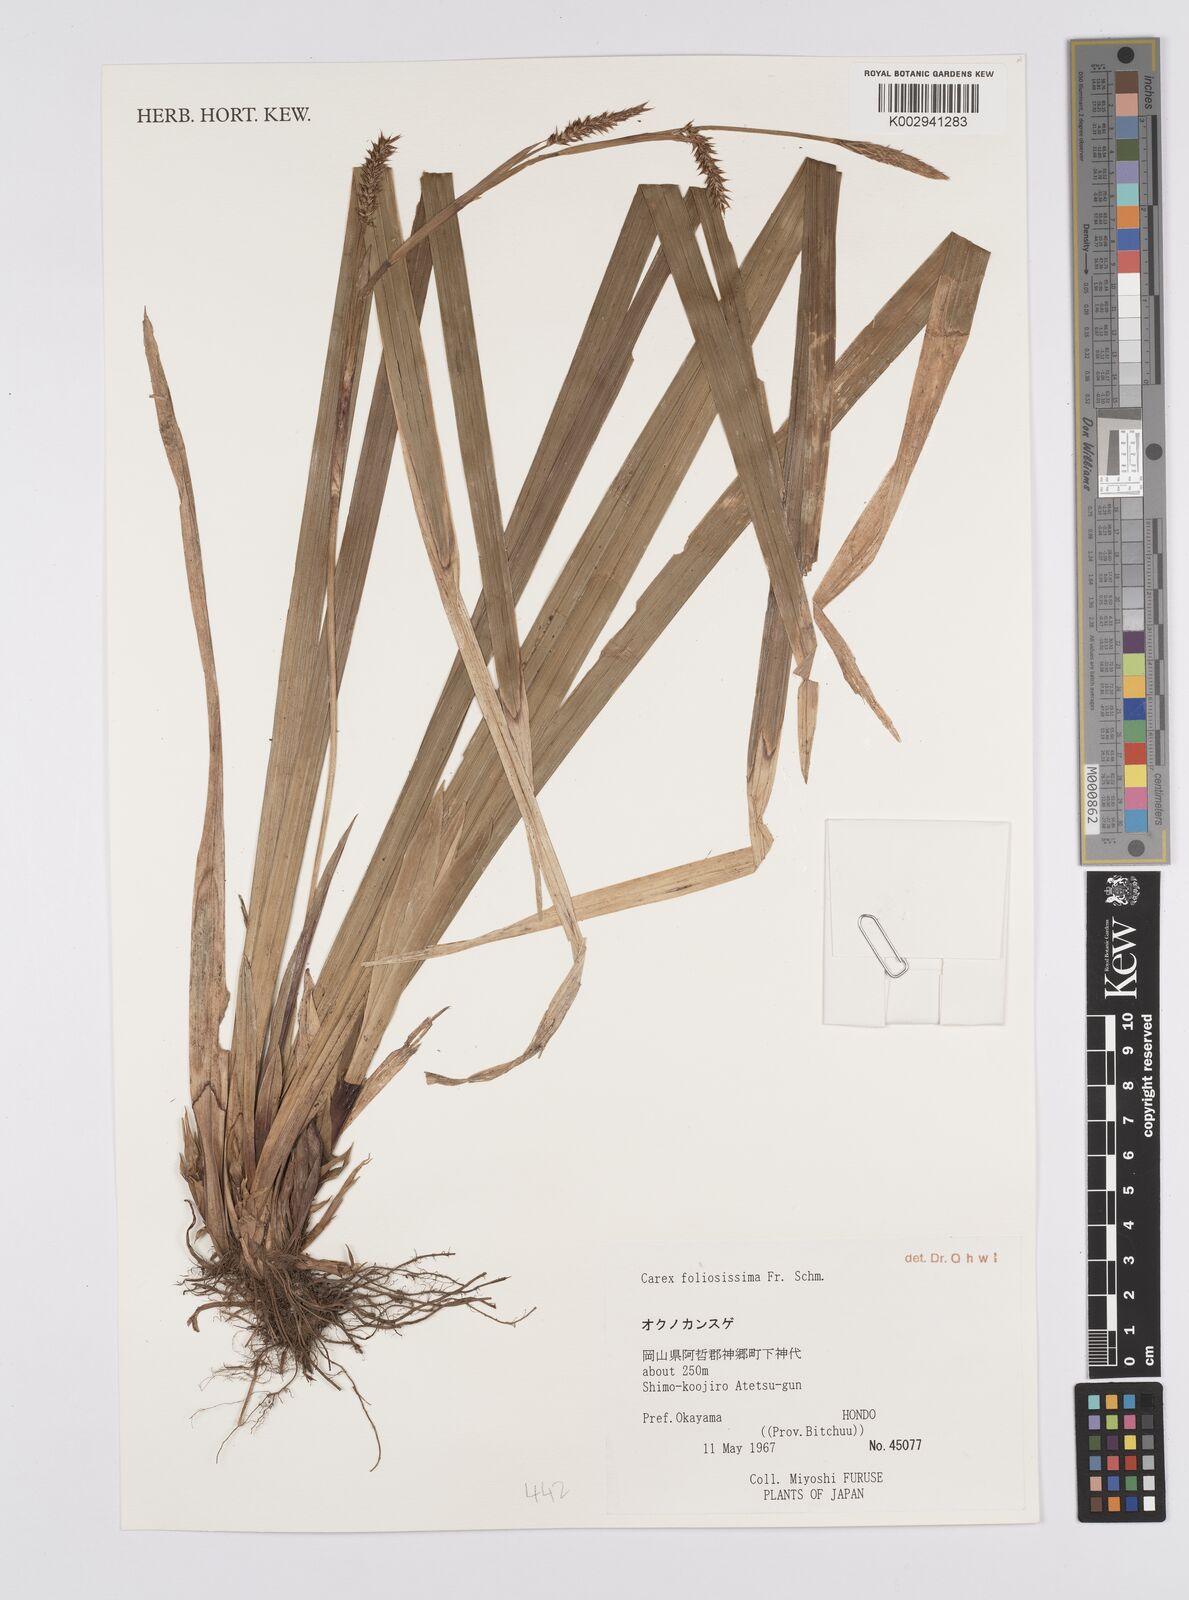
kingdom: Plantae
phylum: Tracheophyta
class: Liliopsida
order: Poales
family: Cyperaceae
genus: Carex
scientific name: Carex foliosissima
